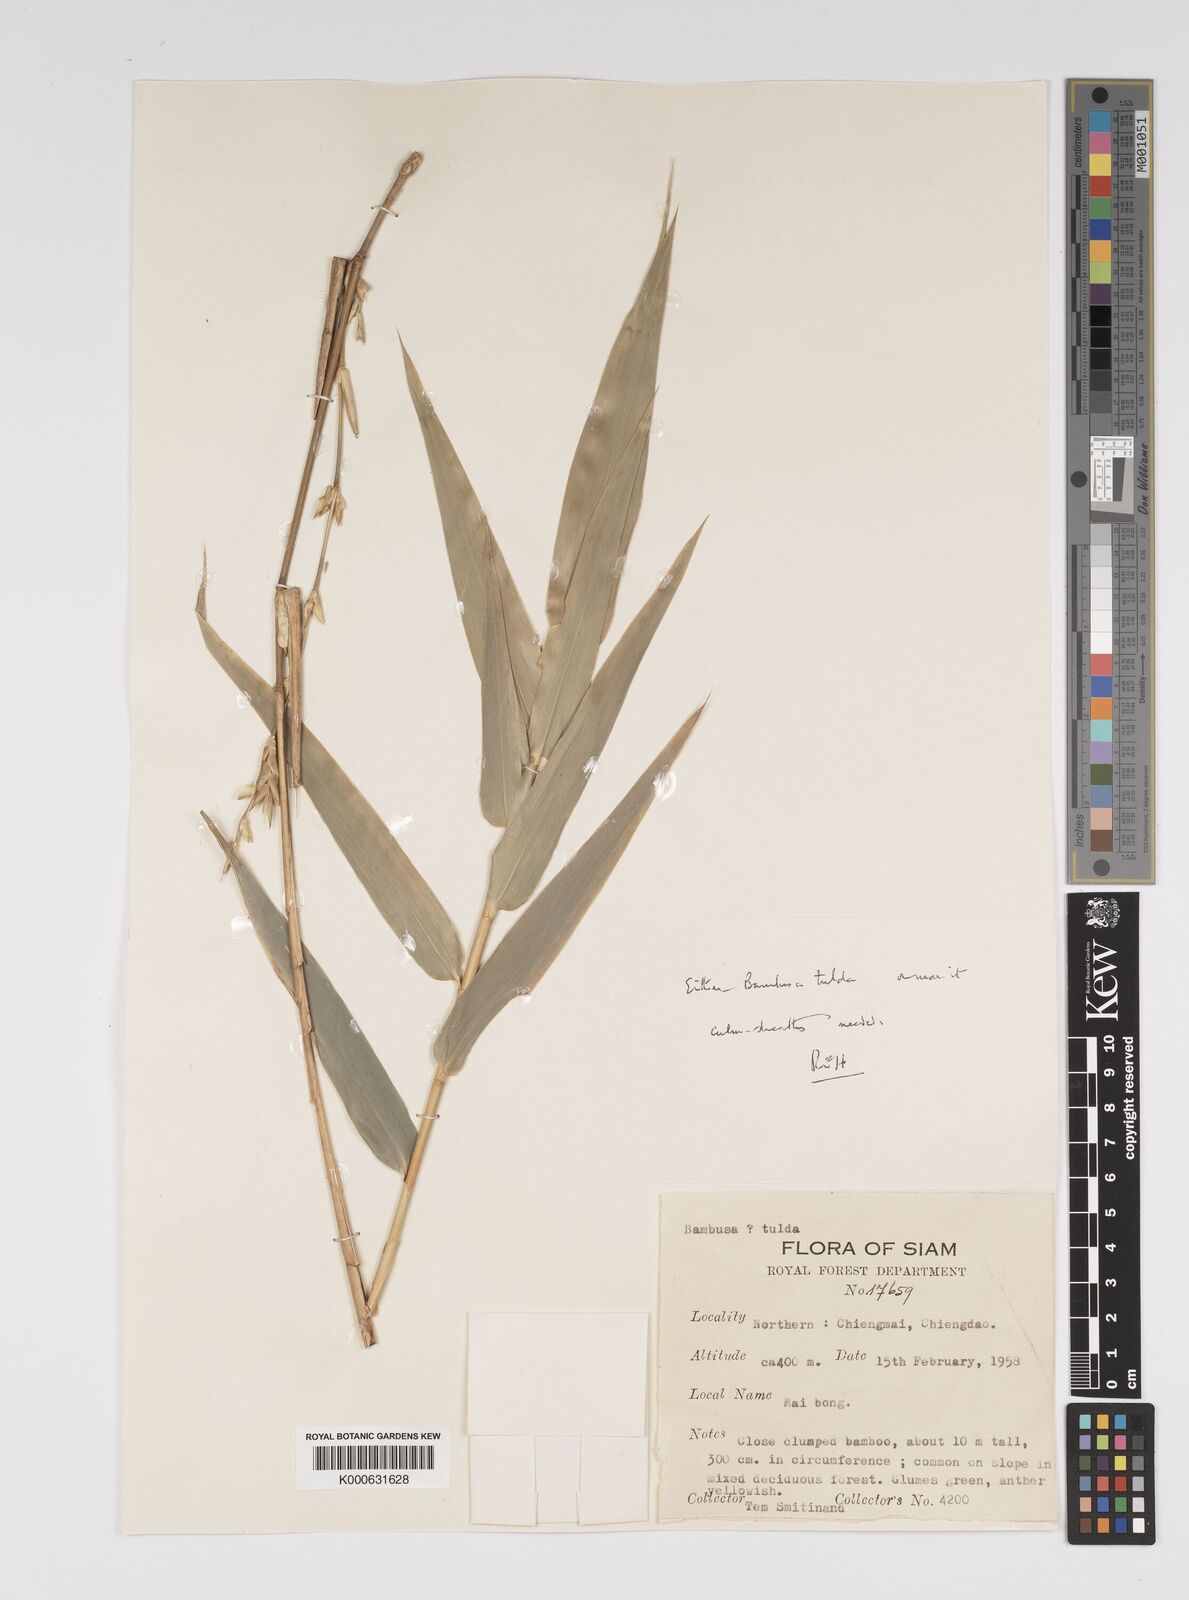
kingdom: Plantae
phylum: Tracheophyta
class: Liliopsida
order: Poales
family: Poaceae
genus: Bambusa
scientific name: Bambusa tulda
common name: Bengal bamboo
